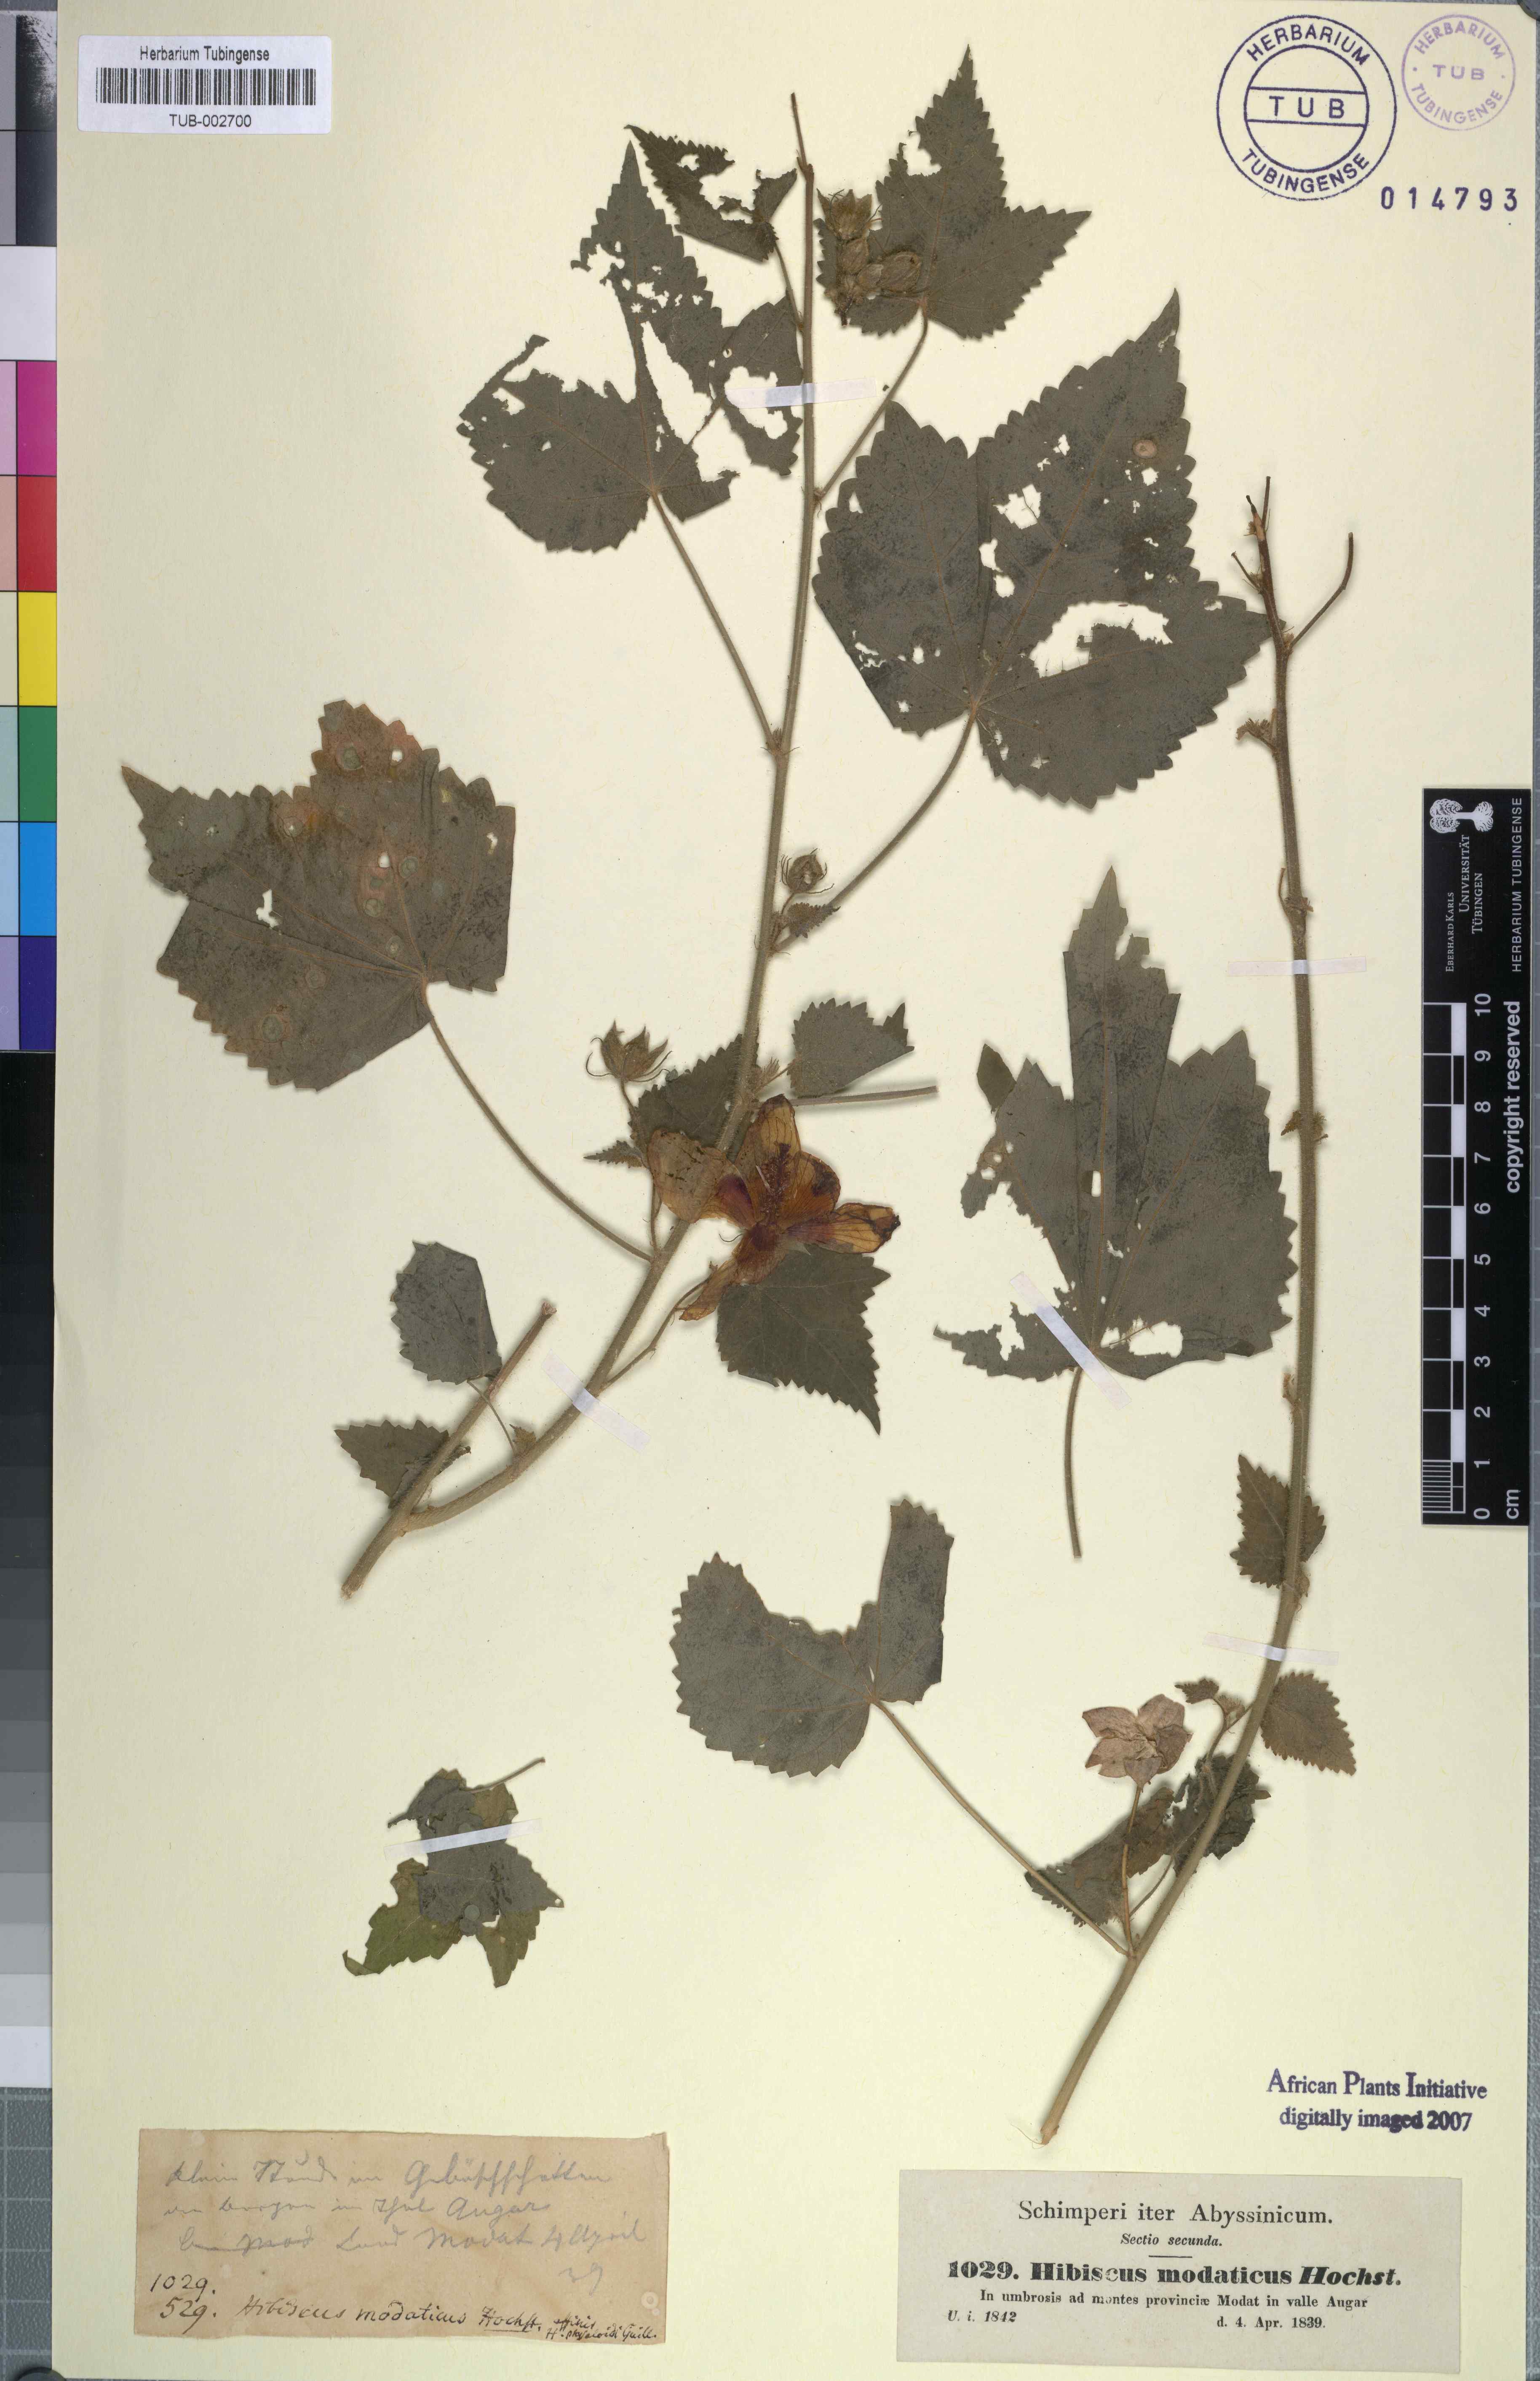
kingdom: Plantae
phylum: Tracheophyta
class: Magnoliopsida
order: Malvales
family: Malvaceae
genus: Hibiscus
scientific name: Hibiscus vitifolius
